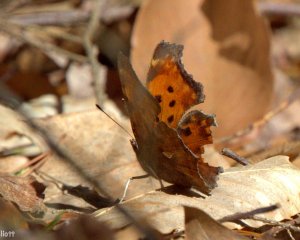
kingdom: Animalia
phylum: Arthropoda
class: Insecta
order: Lepidoptera
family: Nymphalidae
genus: Polygonia
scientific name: Polygonia comma
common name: Eastern Comma
